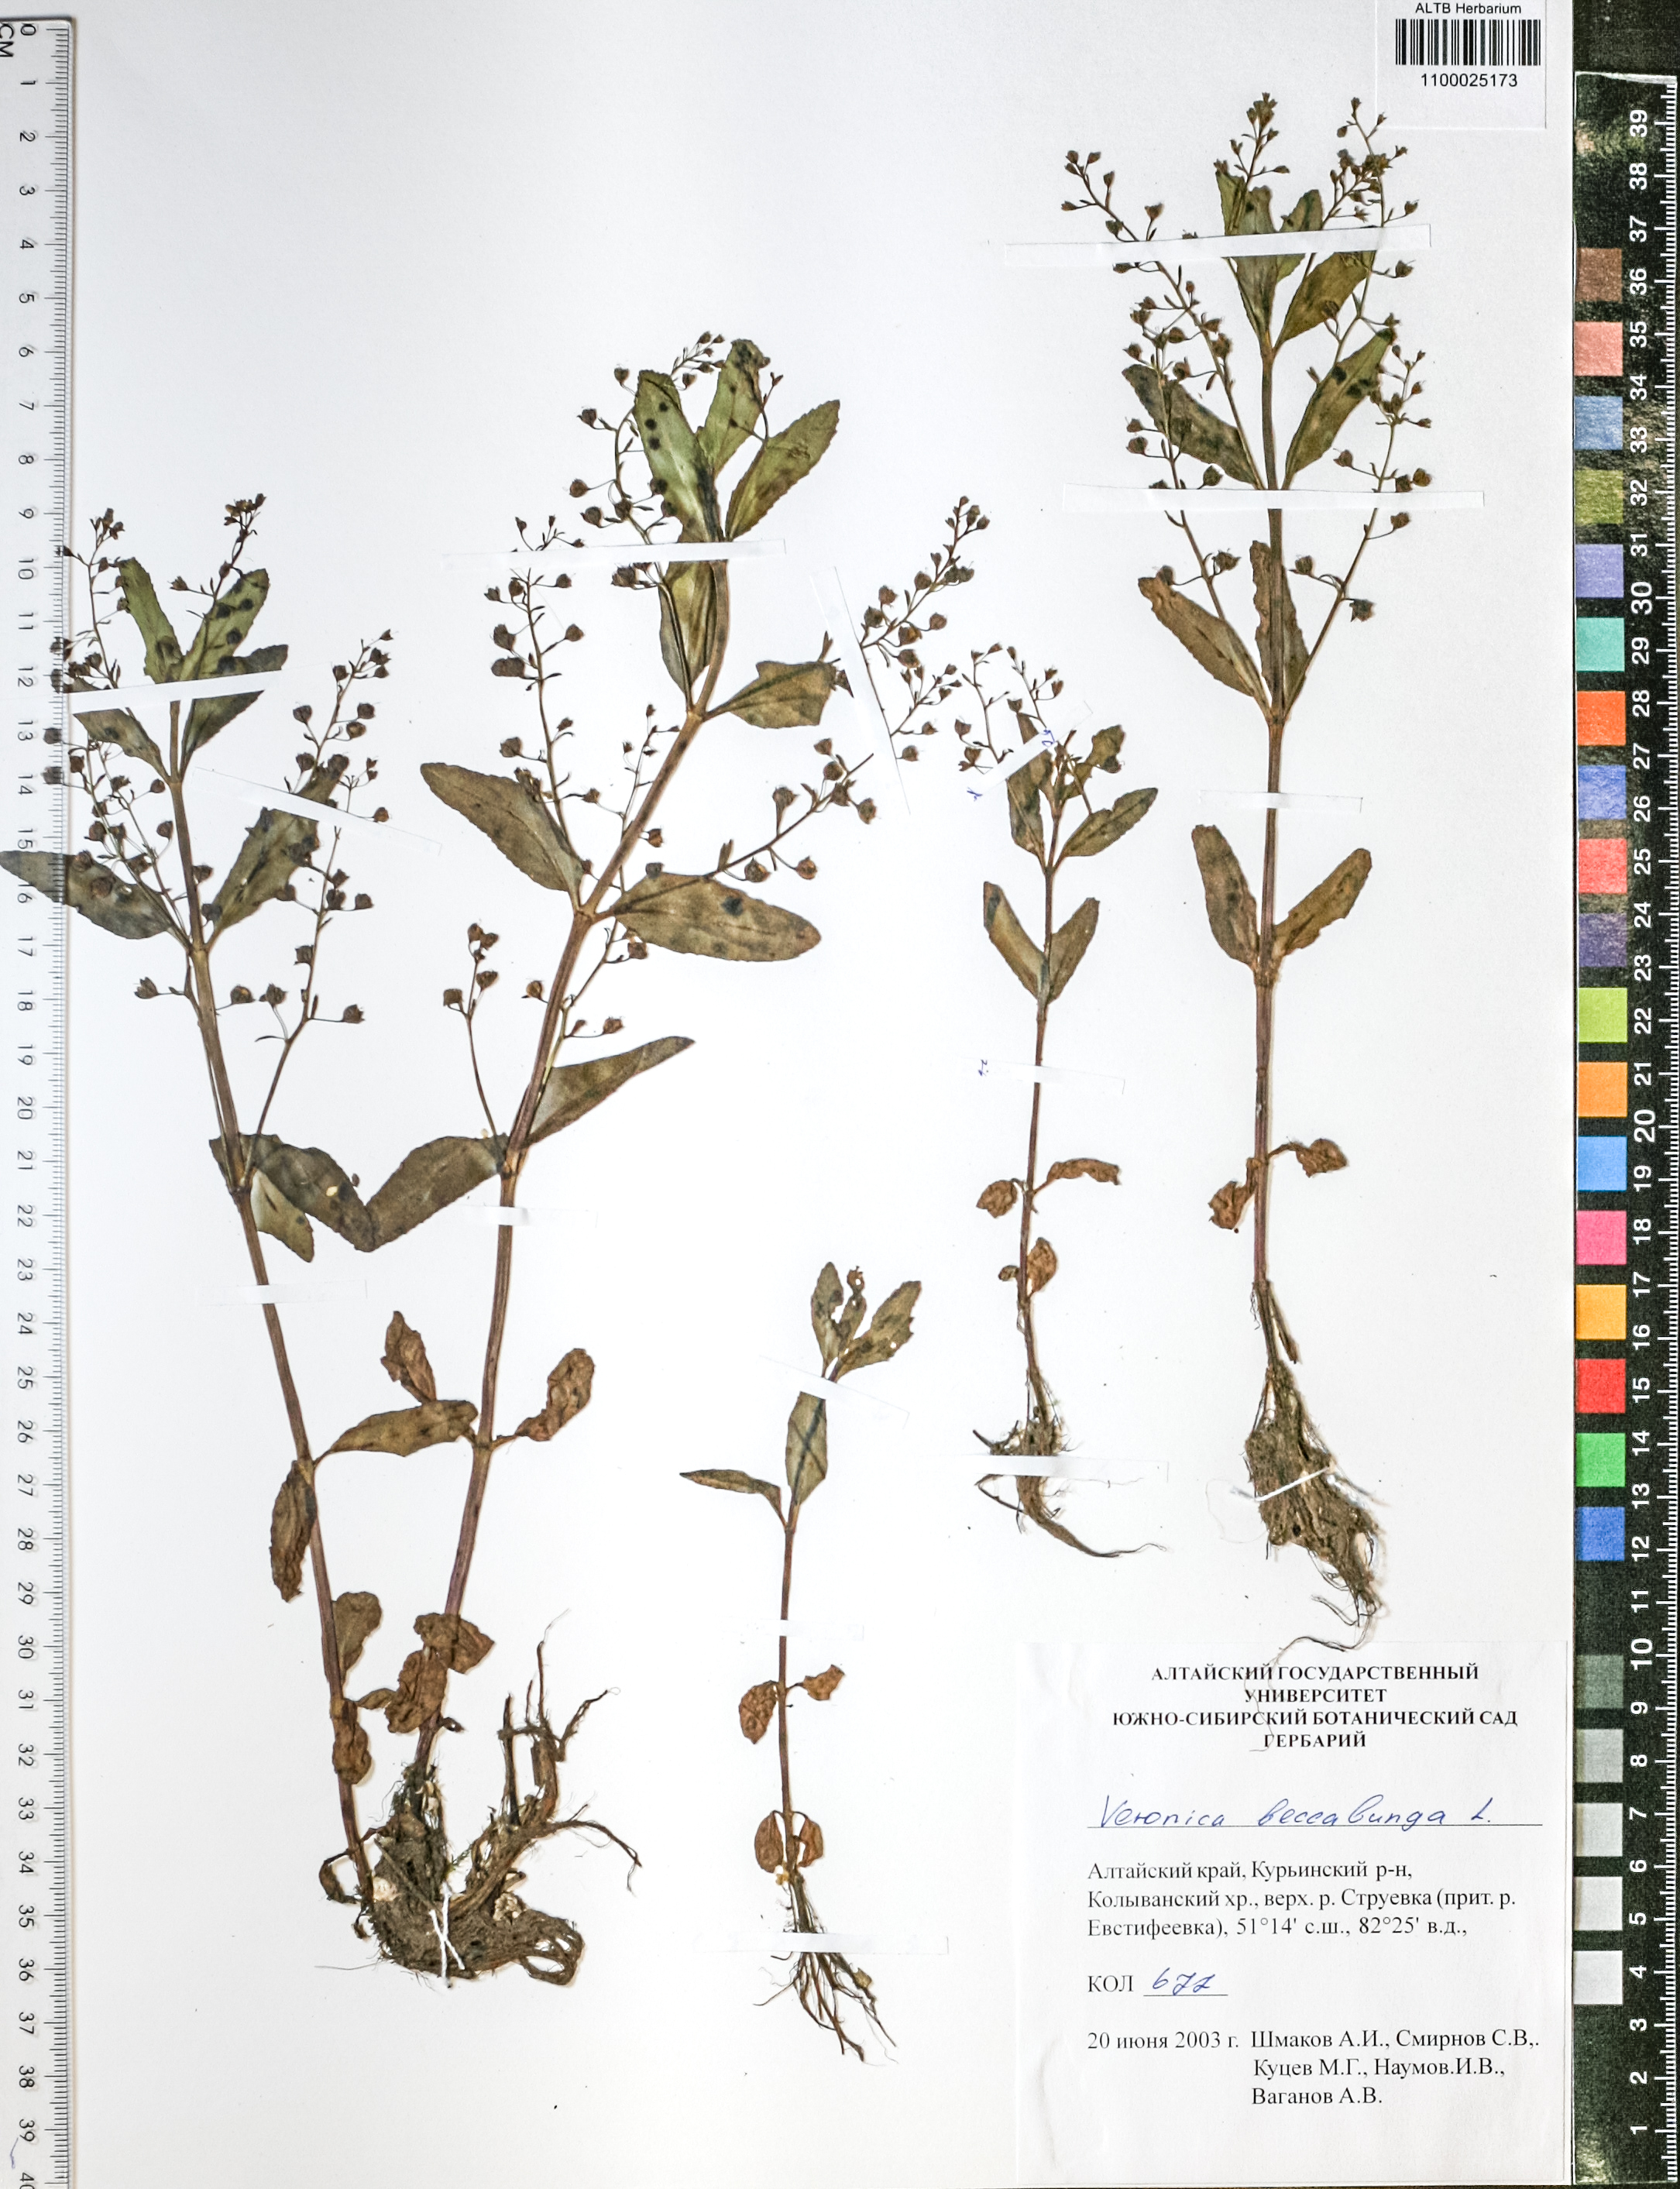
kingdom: Plantae
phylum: Tracheophyta
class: Magnoliopsida
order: Lamiales
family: Plantaginaceae
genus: Veronica
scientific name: Veronica beccabunga
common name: Brooklime
